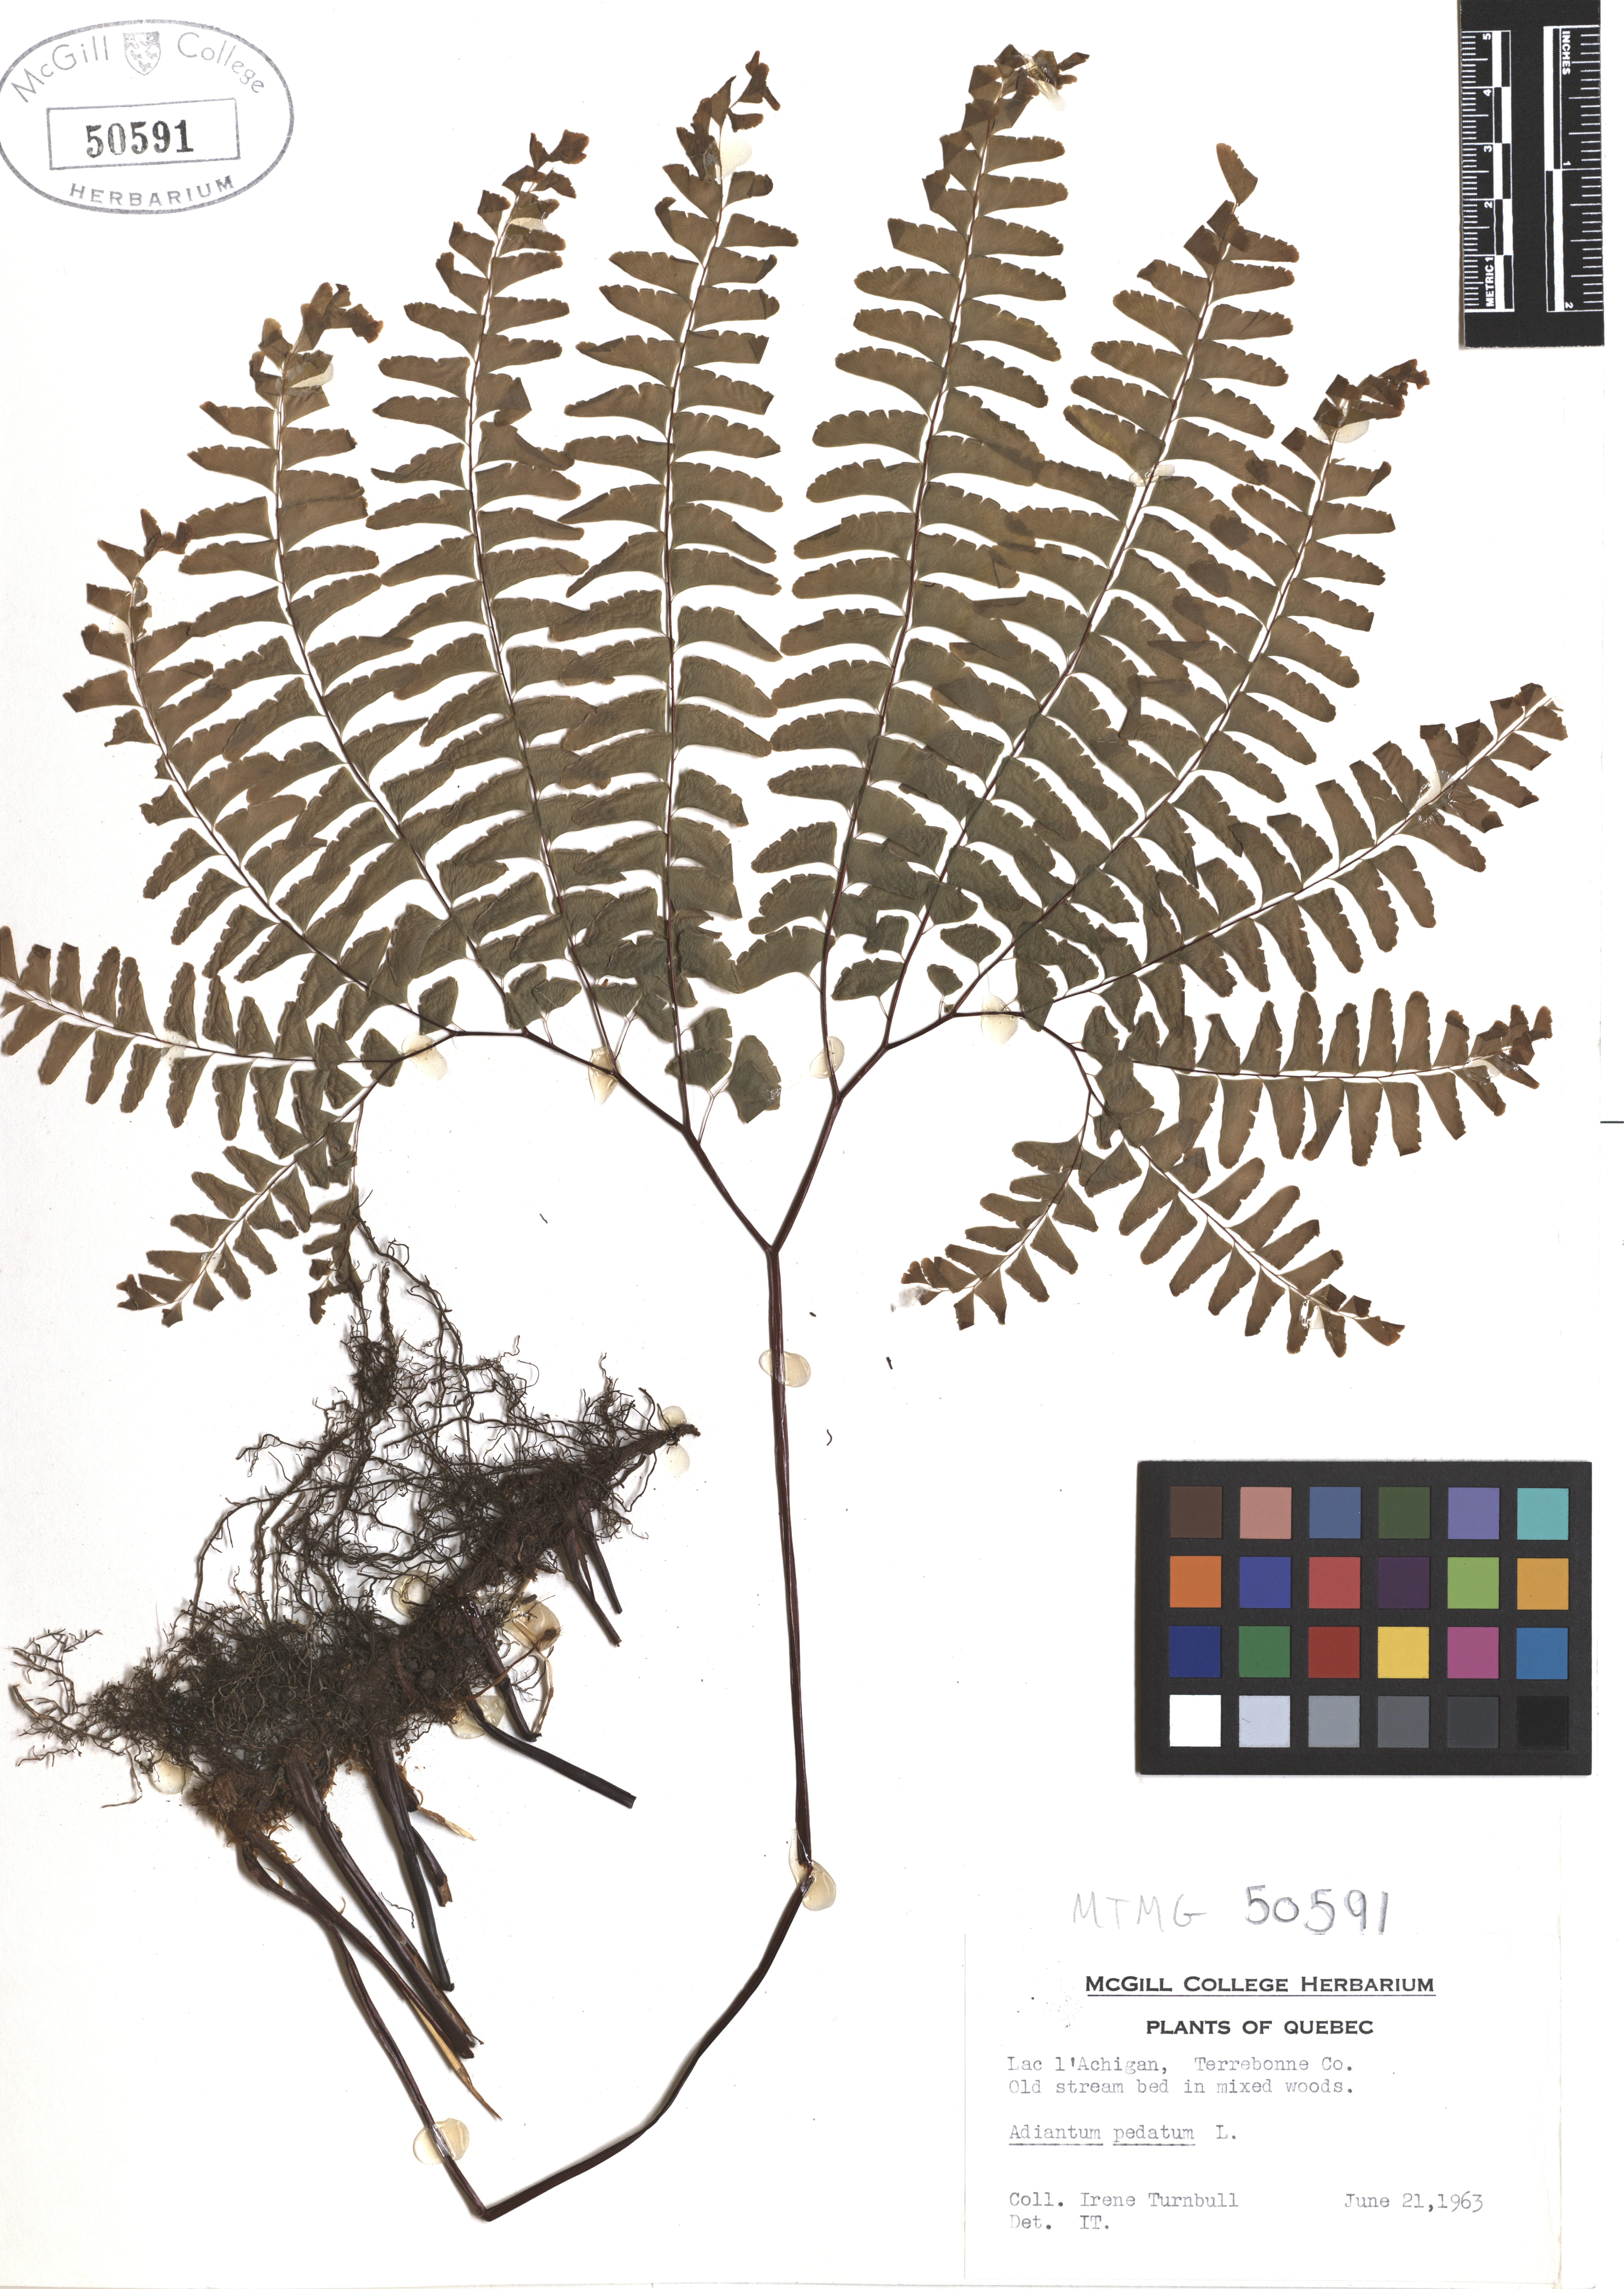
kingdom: Plantae
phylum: Tracheophyta
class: Polypodiopsida
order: Polypodiales
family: Pteridaceae
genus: Adiantum
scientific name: Adiantum pedatum
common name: Five-finger fern
